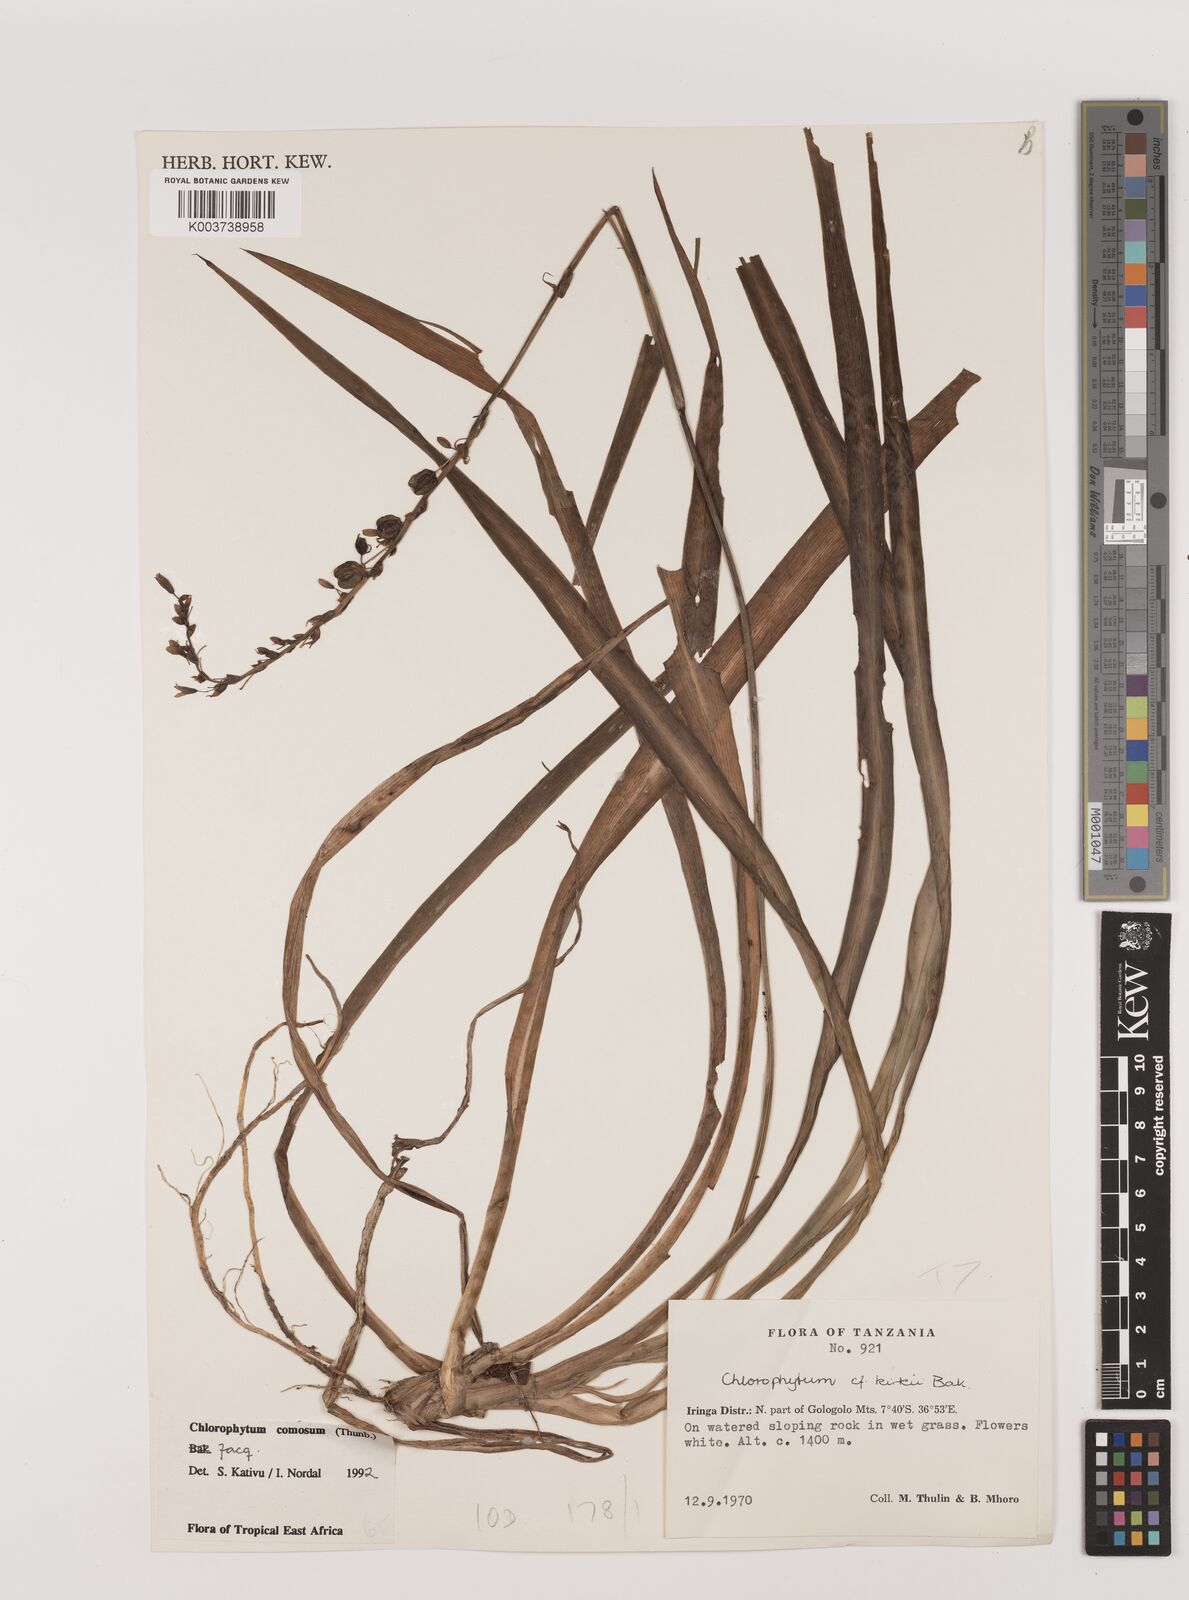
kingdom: Plantae
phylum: Tracheophyta
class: Liliopsida
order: Asparagales
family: Asparagaceae
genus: Chlorophytum
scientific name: Chlorophytum comosum
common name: Spider plant
